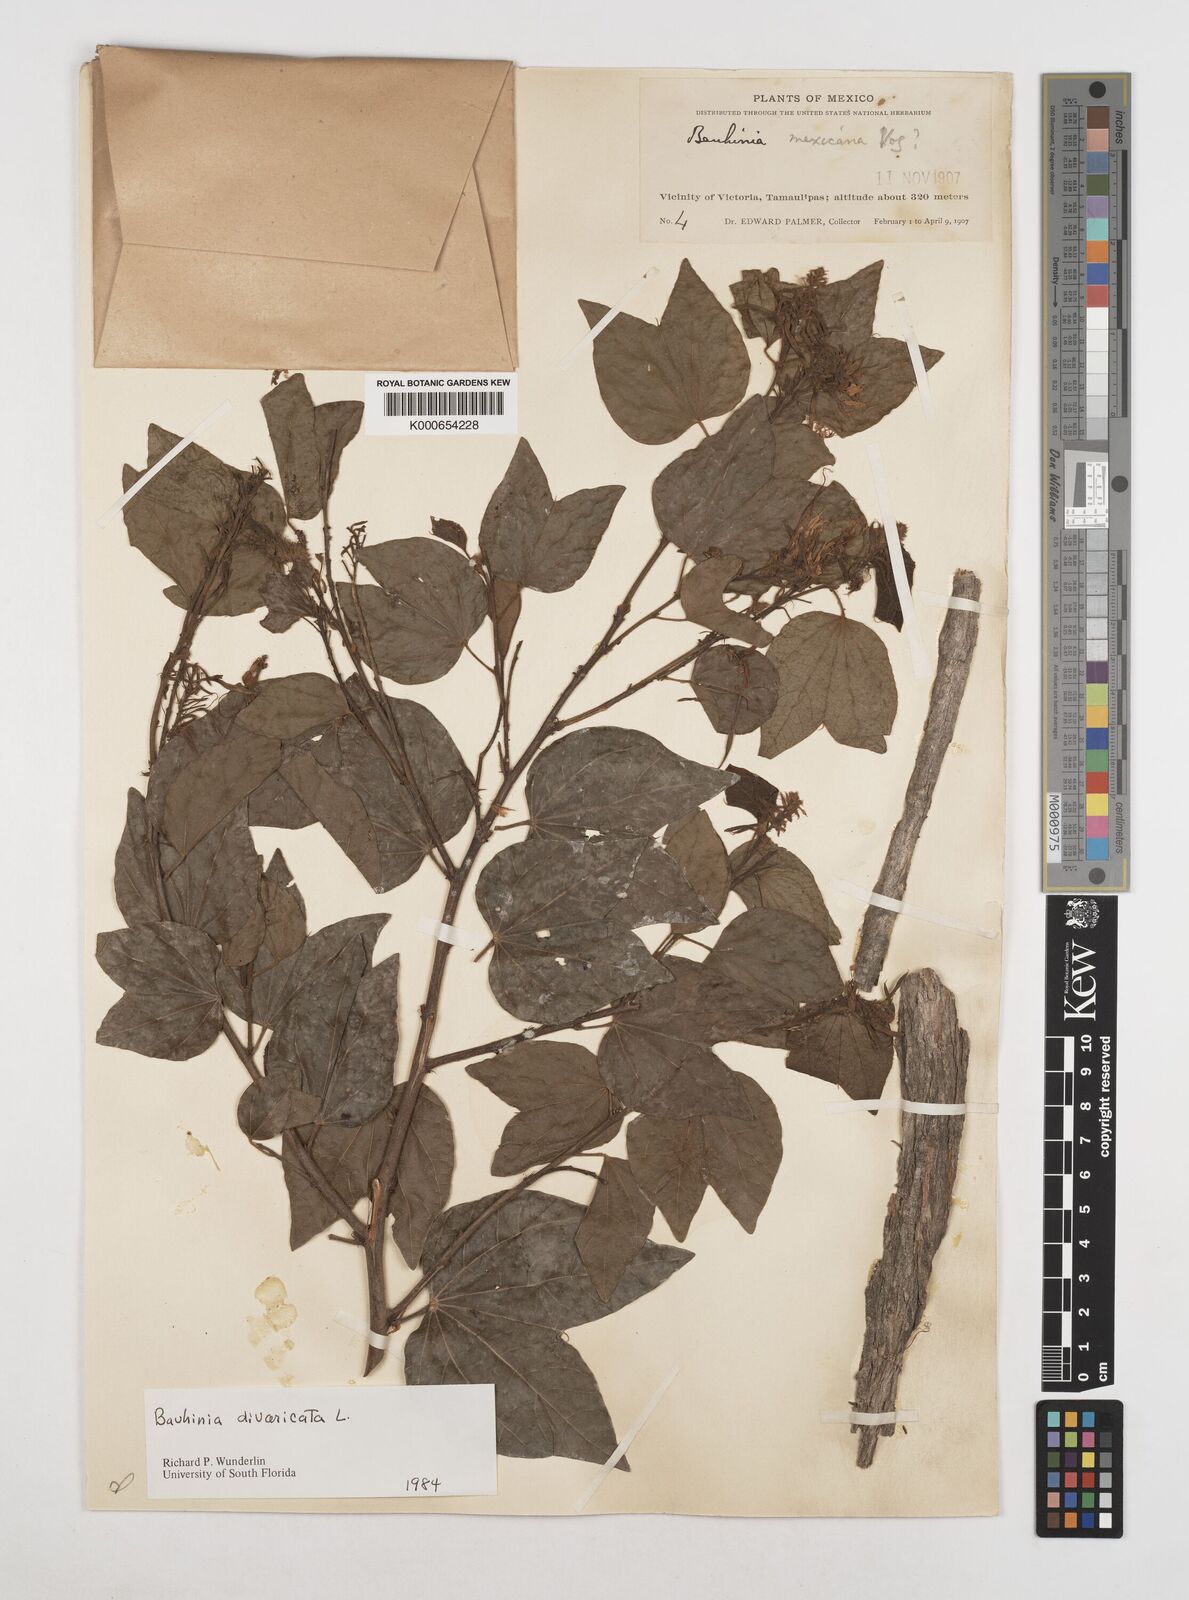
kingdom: Plantae
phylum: Tracheophyta
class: Magnoliopsida
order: Fabales
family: Fabaceae
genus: Bauhinia
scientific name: Bauhinia divaricata
